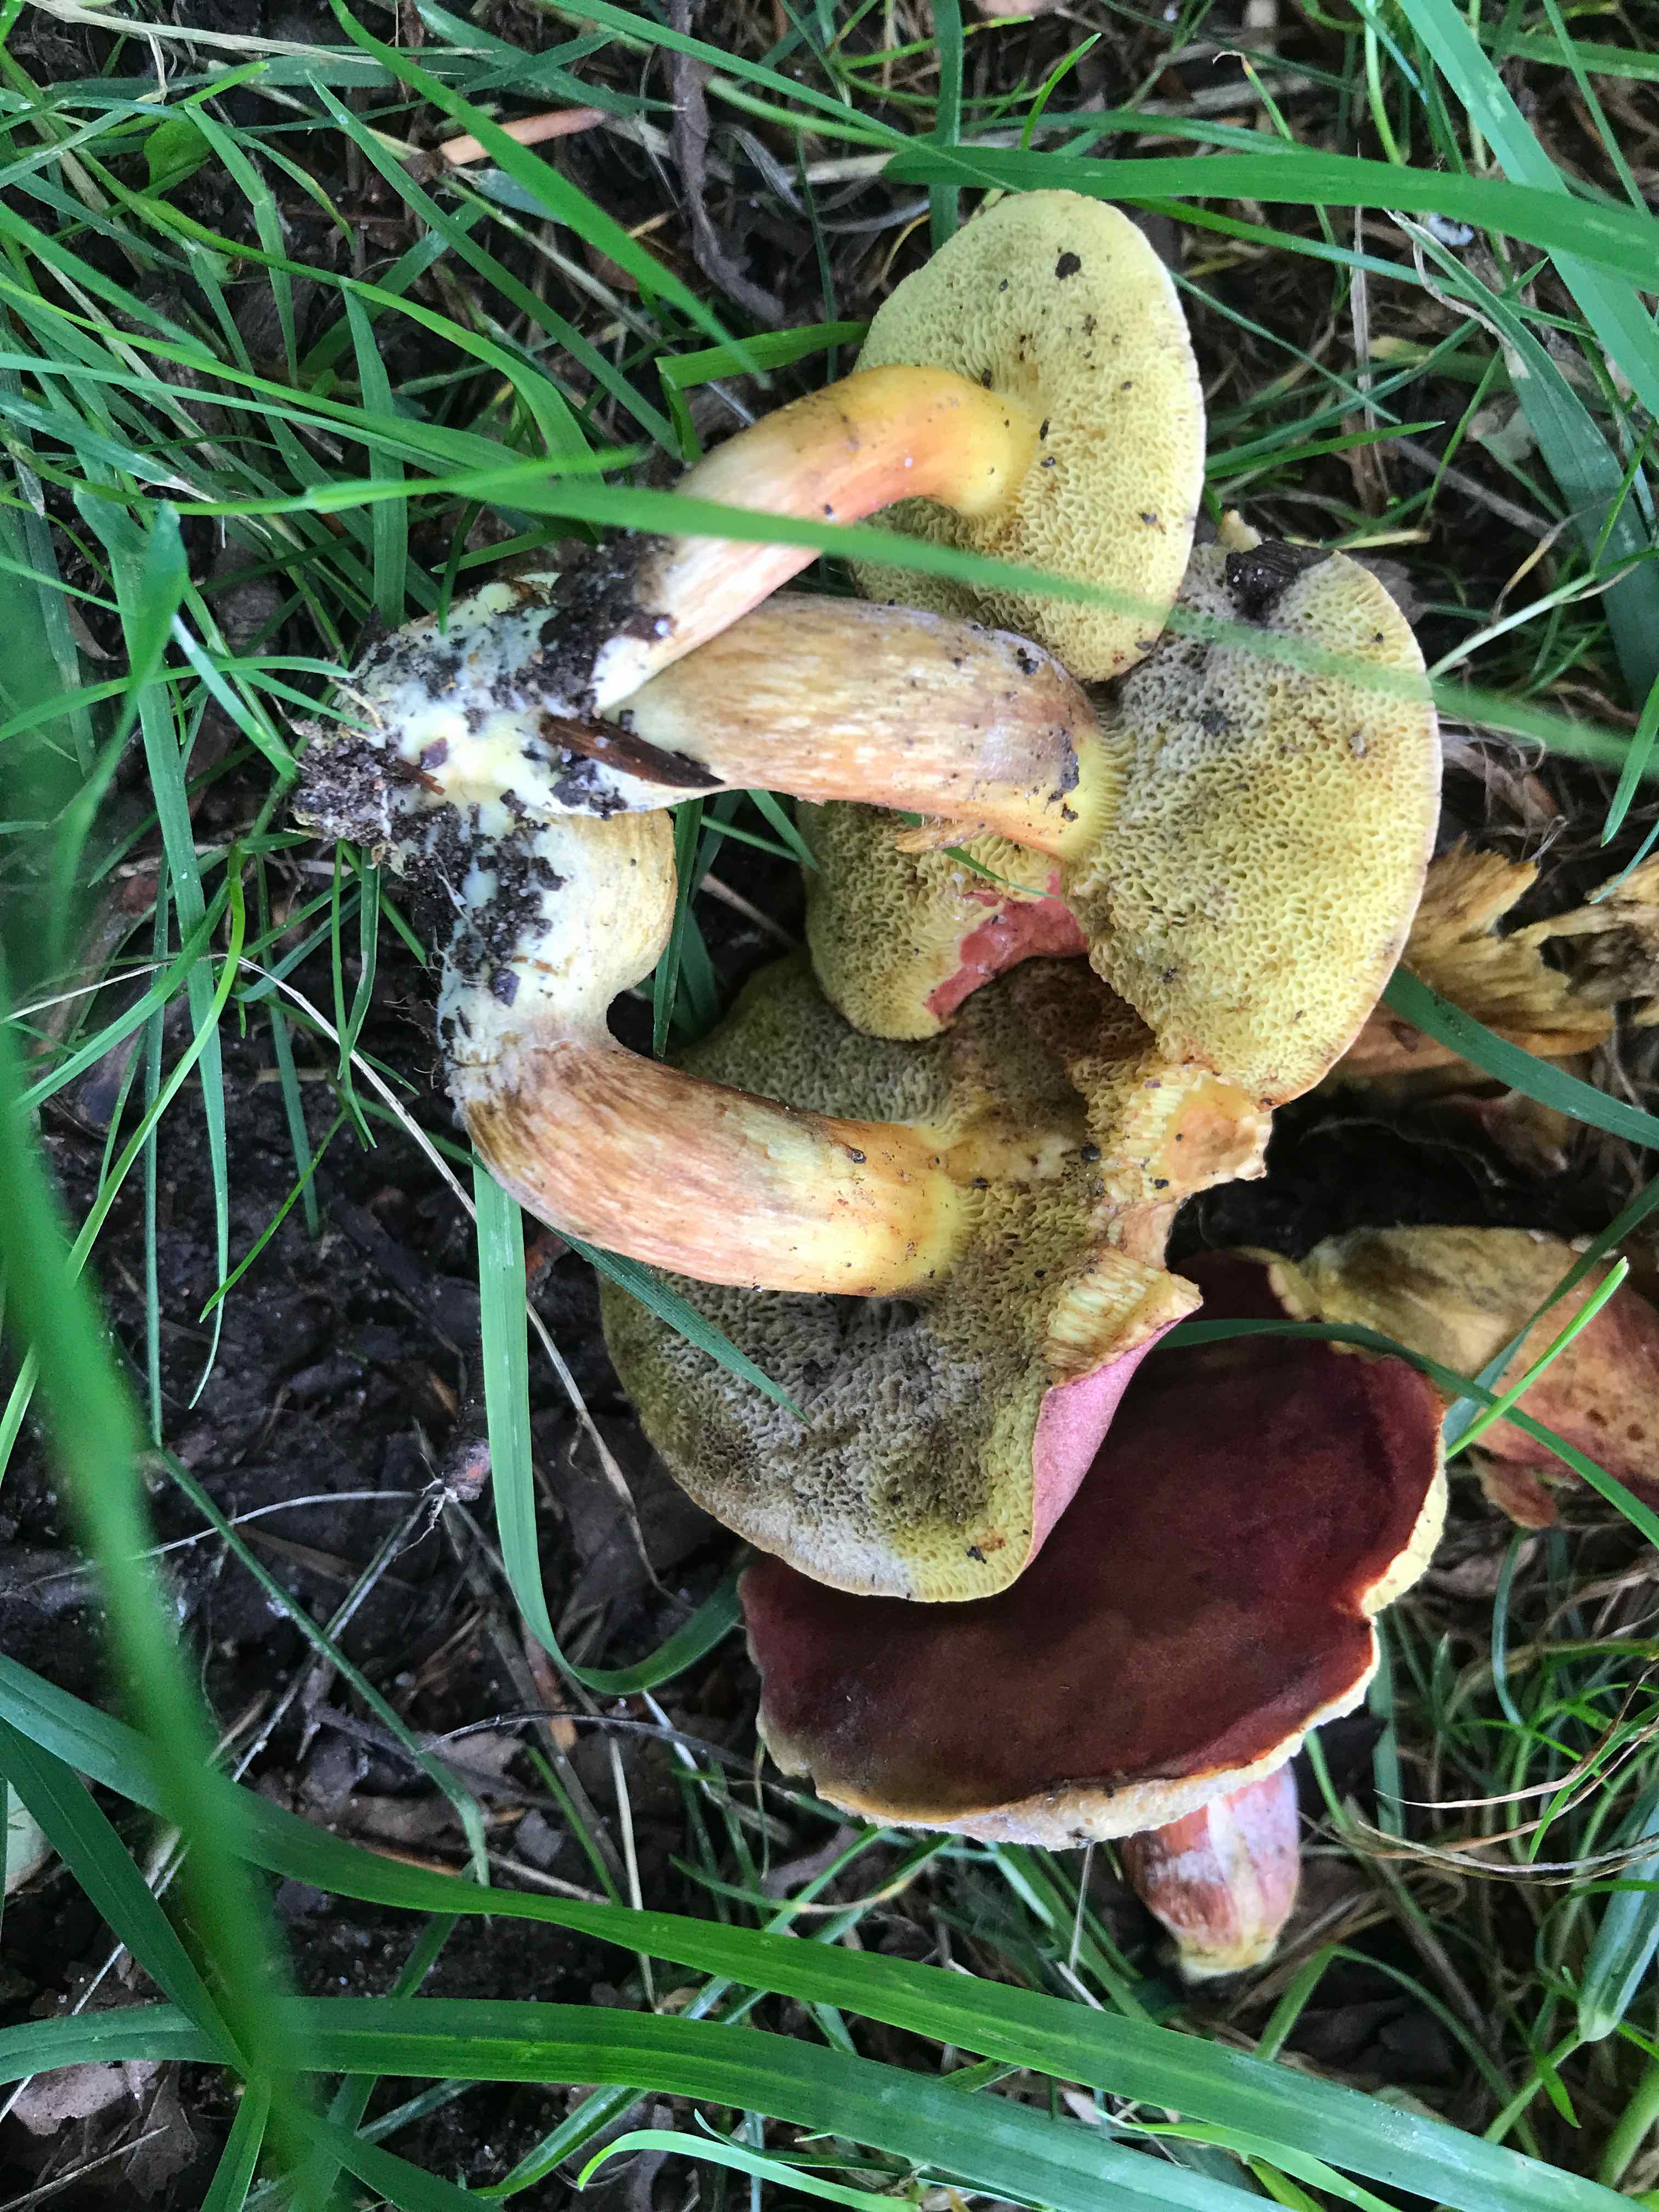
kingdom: Fungi
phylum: Basidiomycota
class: Agaricomycetes
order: Boletales
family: Boletaceae
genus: Hortiboletus
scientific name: Hortiboletus rubellus
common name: blodrød rørhat
